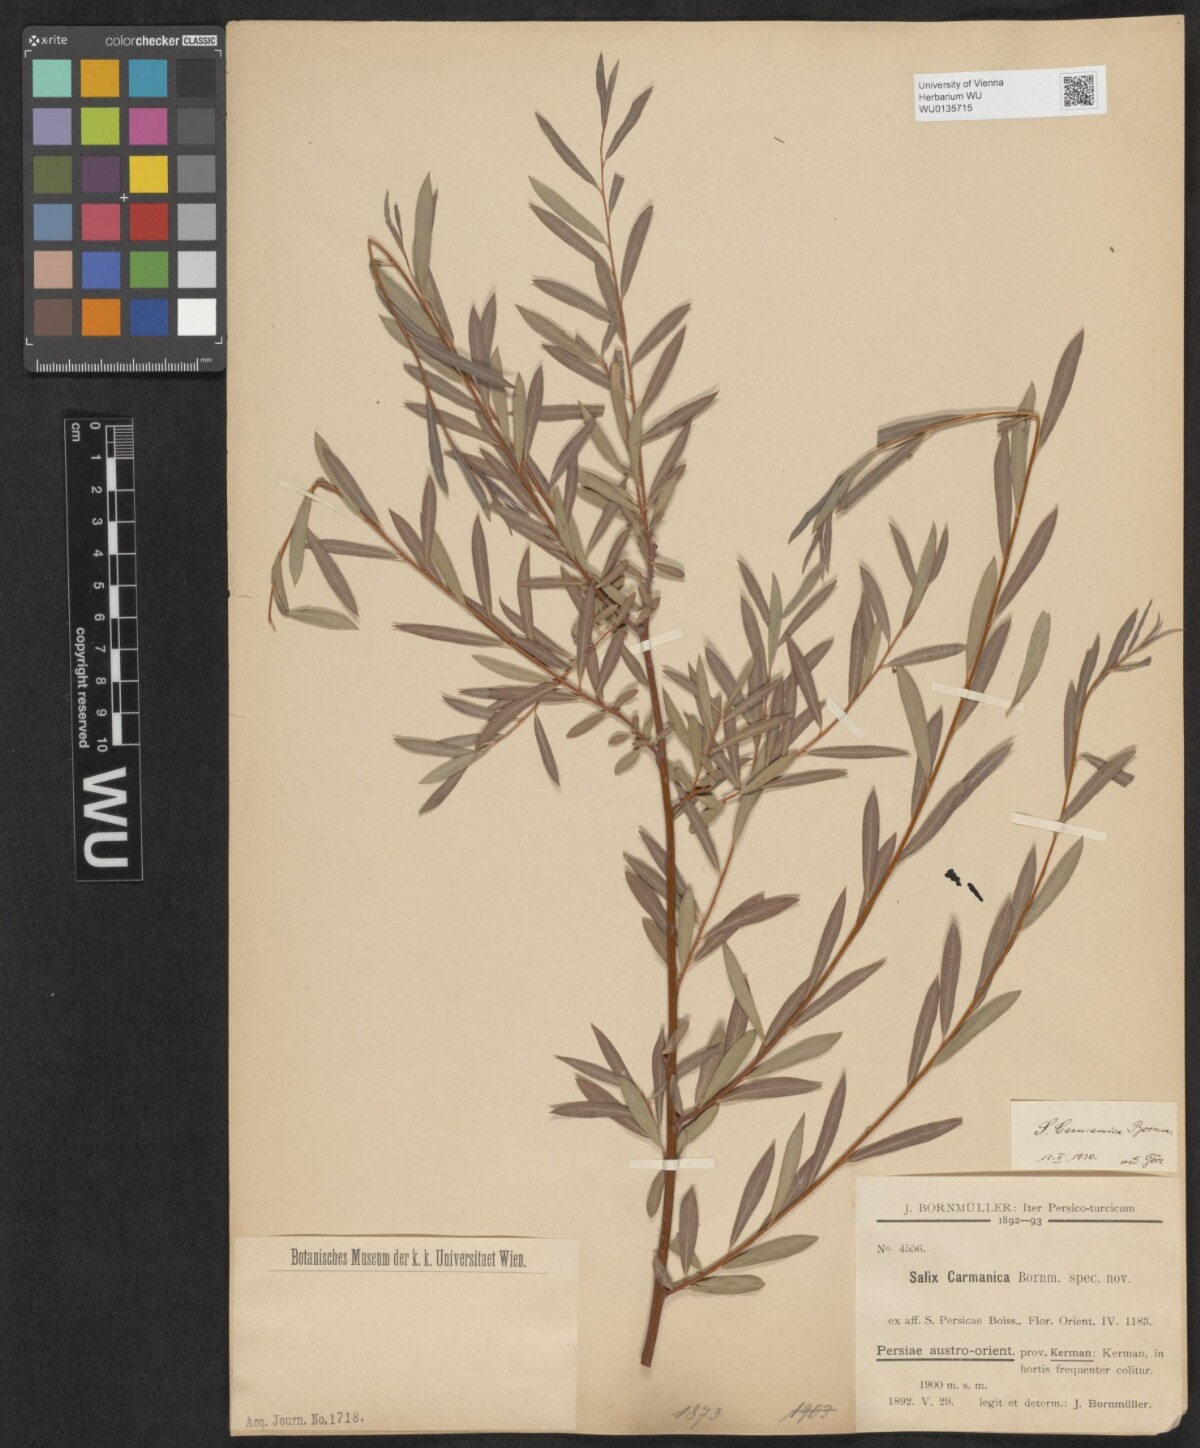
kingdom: Plantae
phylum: Tracheophyta
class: Magnoliopsida
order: Malpighiales
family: Salicaceae
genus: Salix
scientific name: Salix carmanica
